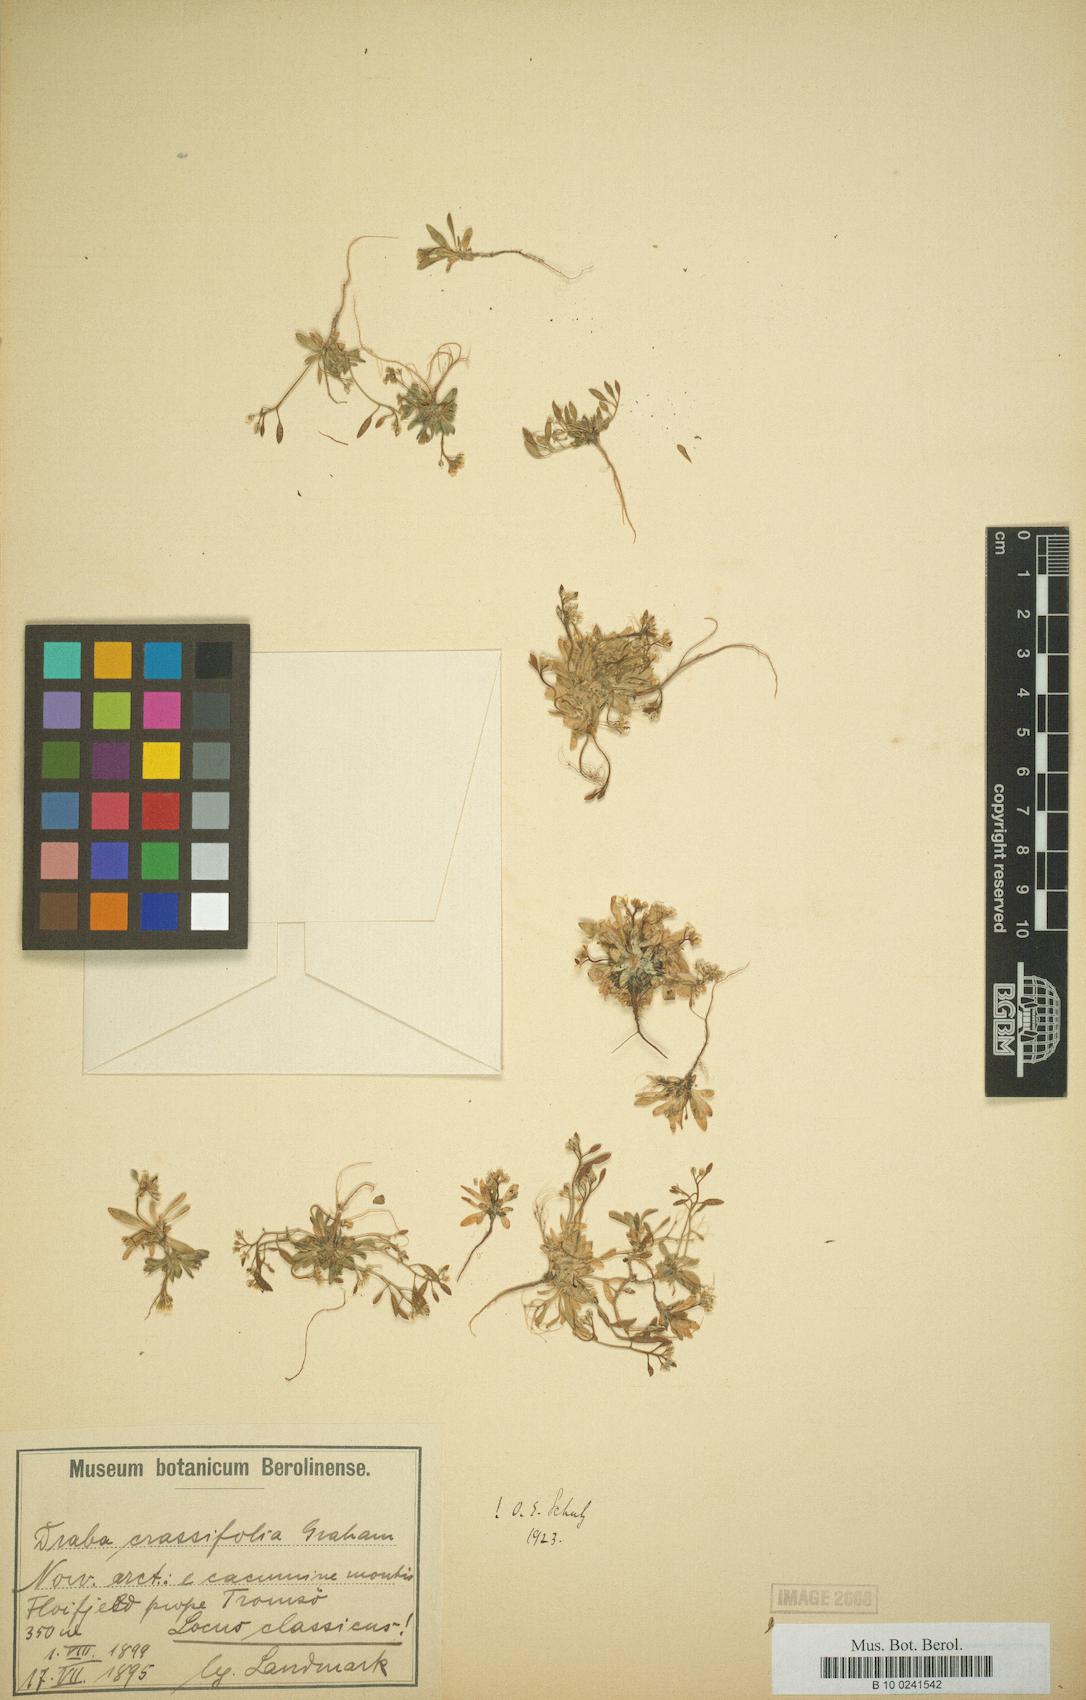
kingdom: Plantae
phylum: Tracheophyta
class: Magnoliopsida
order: Brassicales
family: Brassicaceae
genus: Draba
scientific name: Draba crassifolia
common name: Rocky mountain draba
